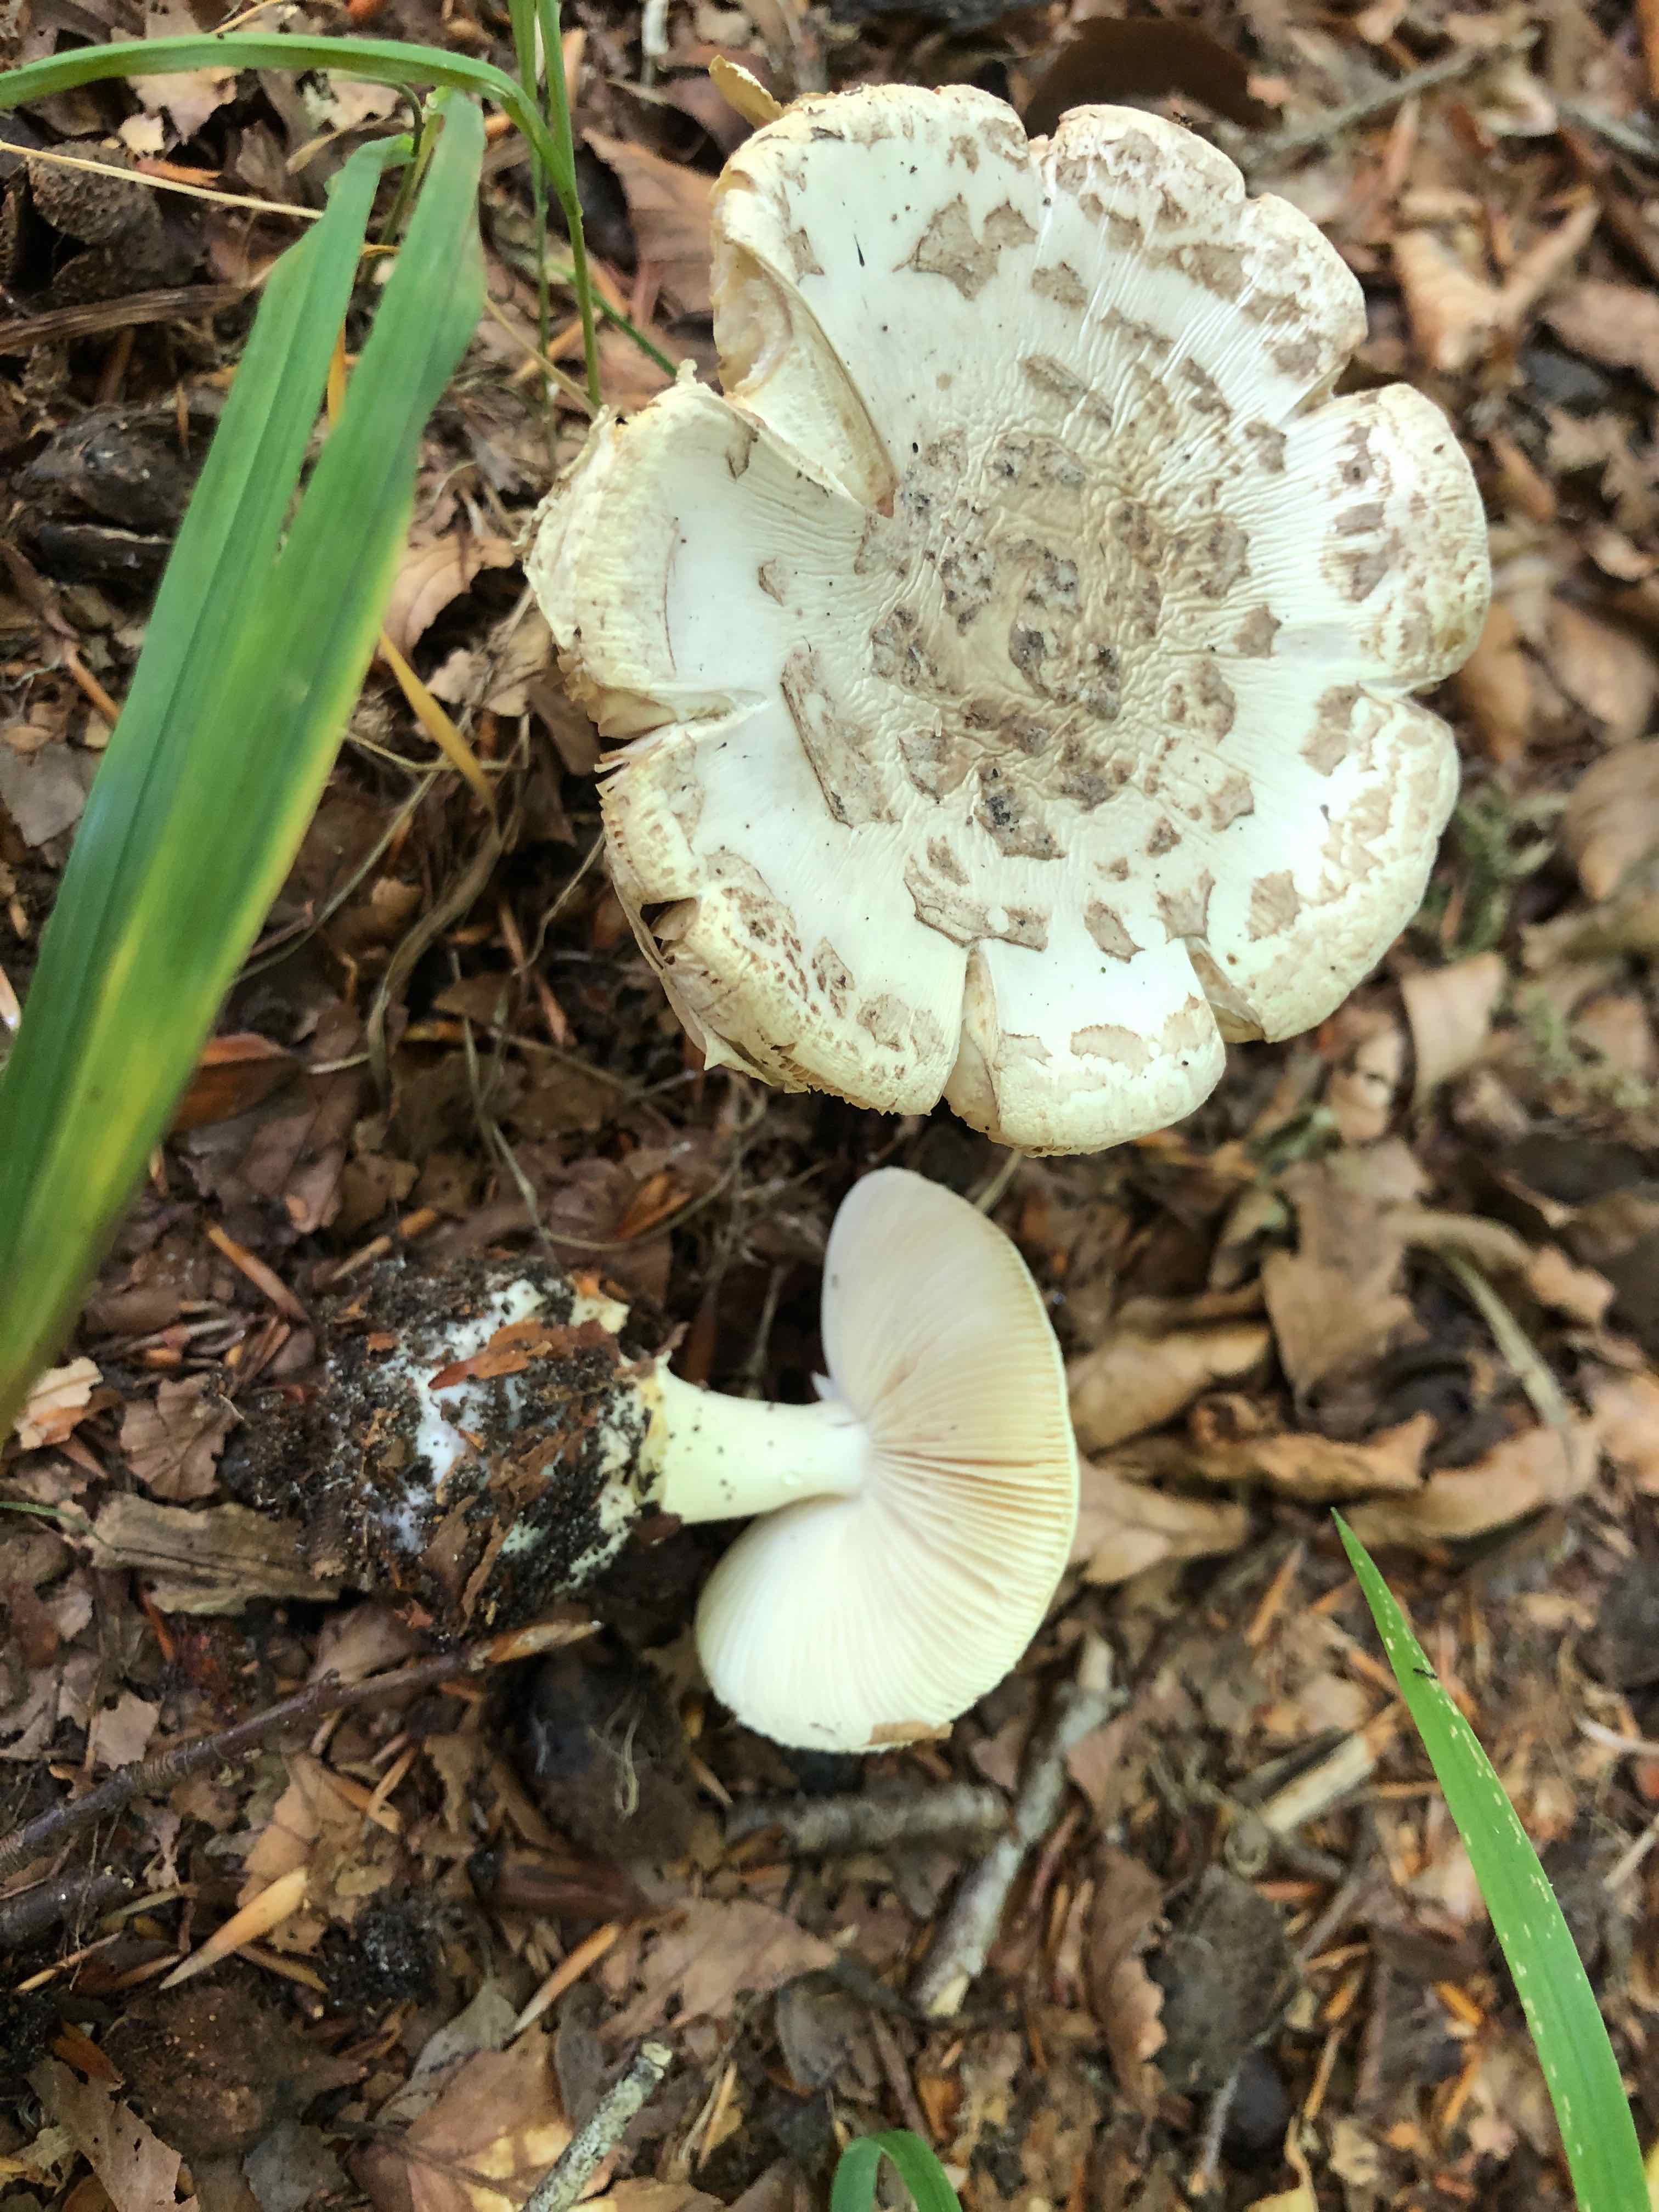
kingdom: Fungi
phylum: Basidiomycota
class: Agaricomycetes
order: Agaricales
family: Amanitaceae
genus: Amanita
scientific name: Amanita citrina
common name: kugleknoldet fluesvamp
